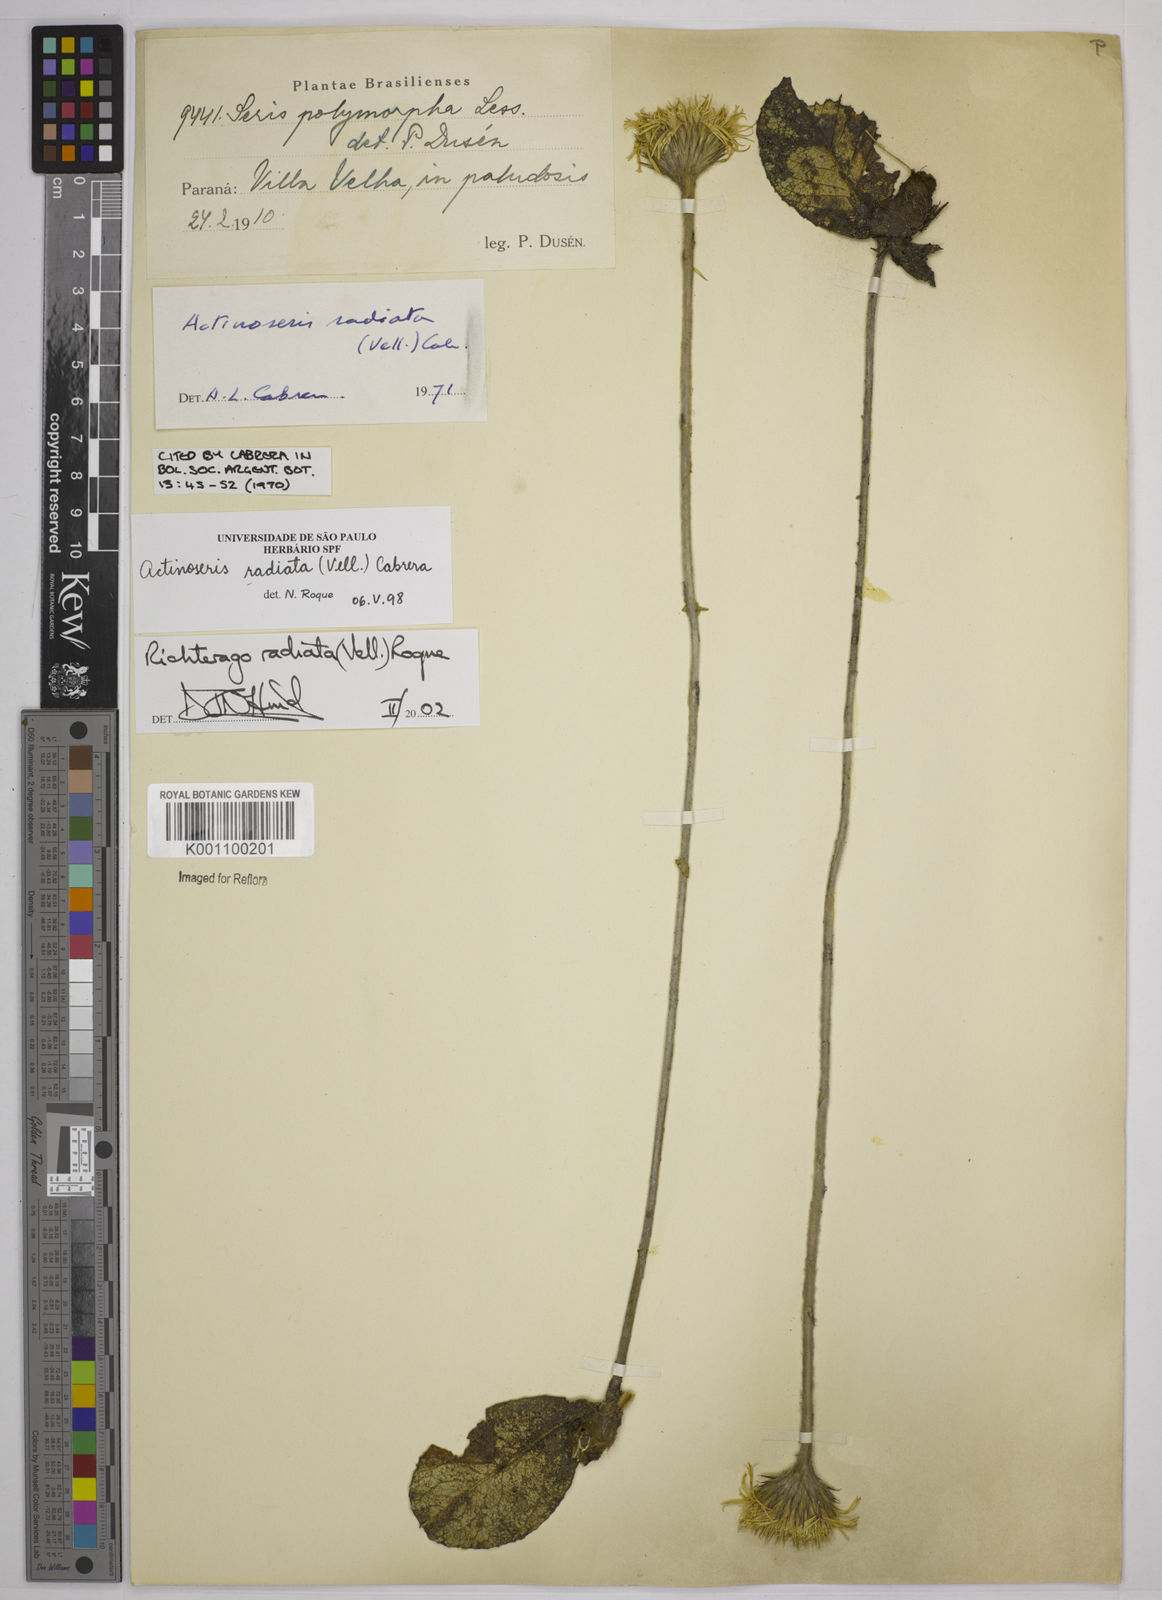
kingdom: Plantae
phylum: Tracheophyta
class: Magnoliopsida
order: Asterales
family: Asteraceae
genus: Richterago
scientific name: Richterago radiata
